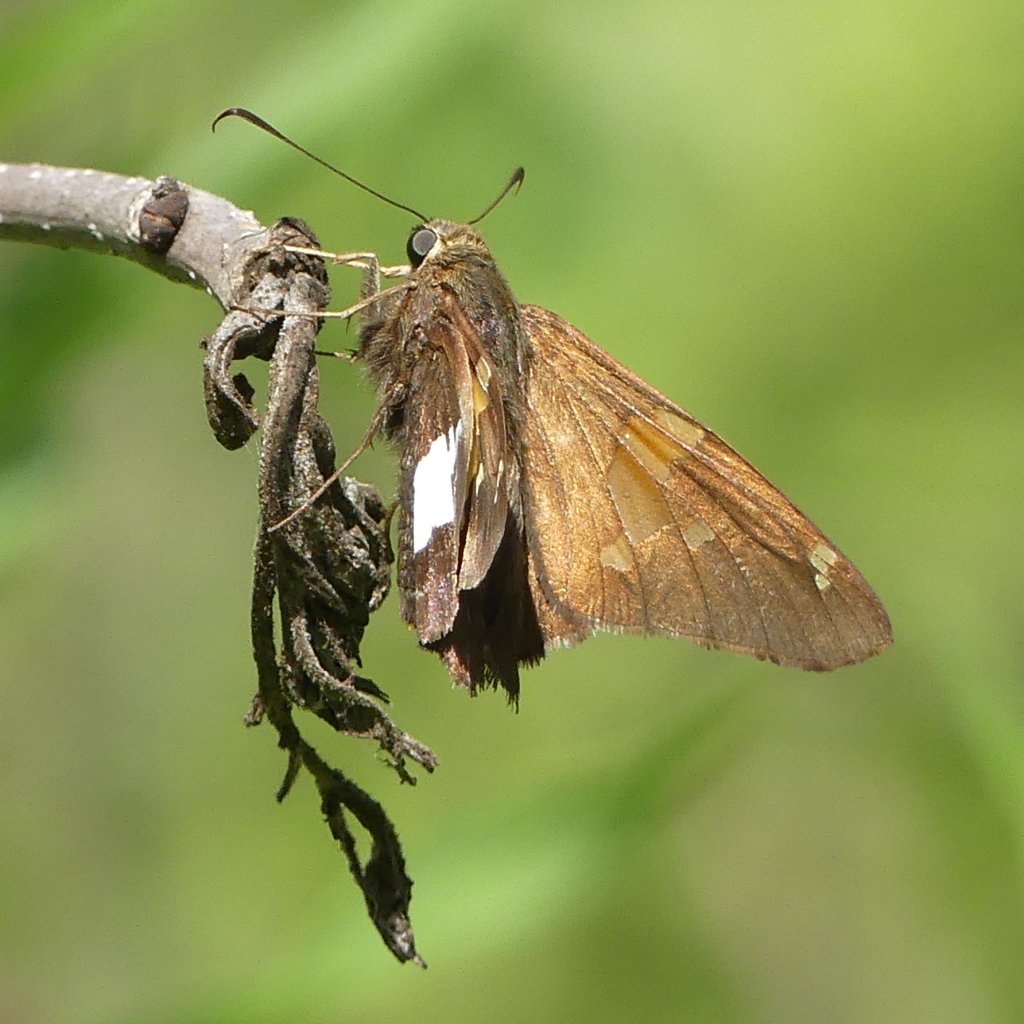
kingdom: Animalia
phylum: Arthropoda
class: Insecta
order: Lepidoptera
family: Hesperiidae
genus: Epargyreus
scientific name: Epargyreus clarus
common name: Silver-spotted Skipper
